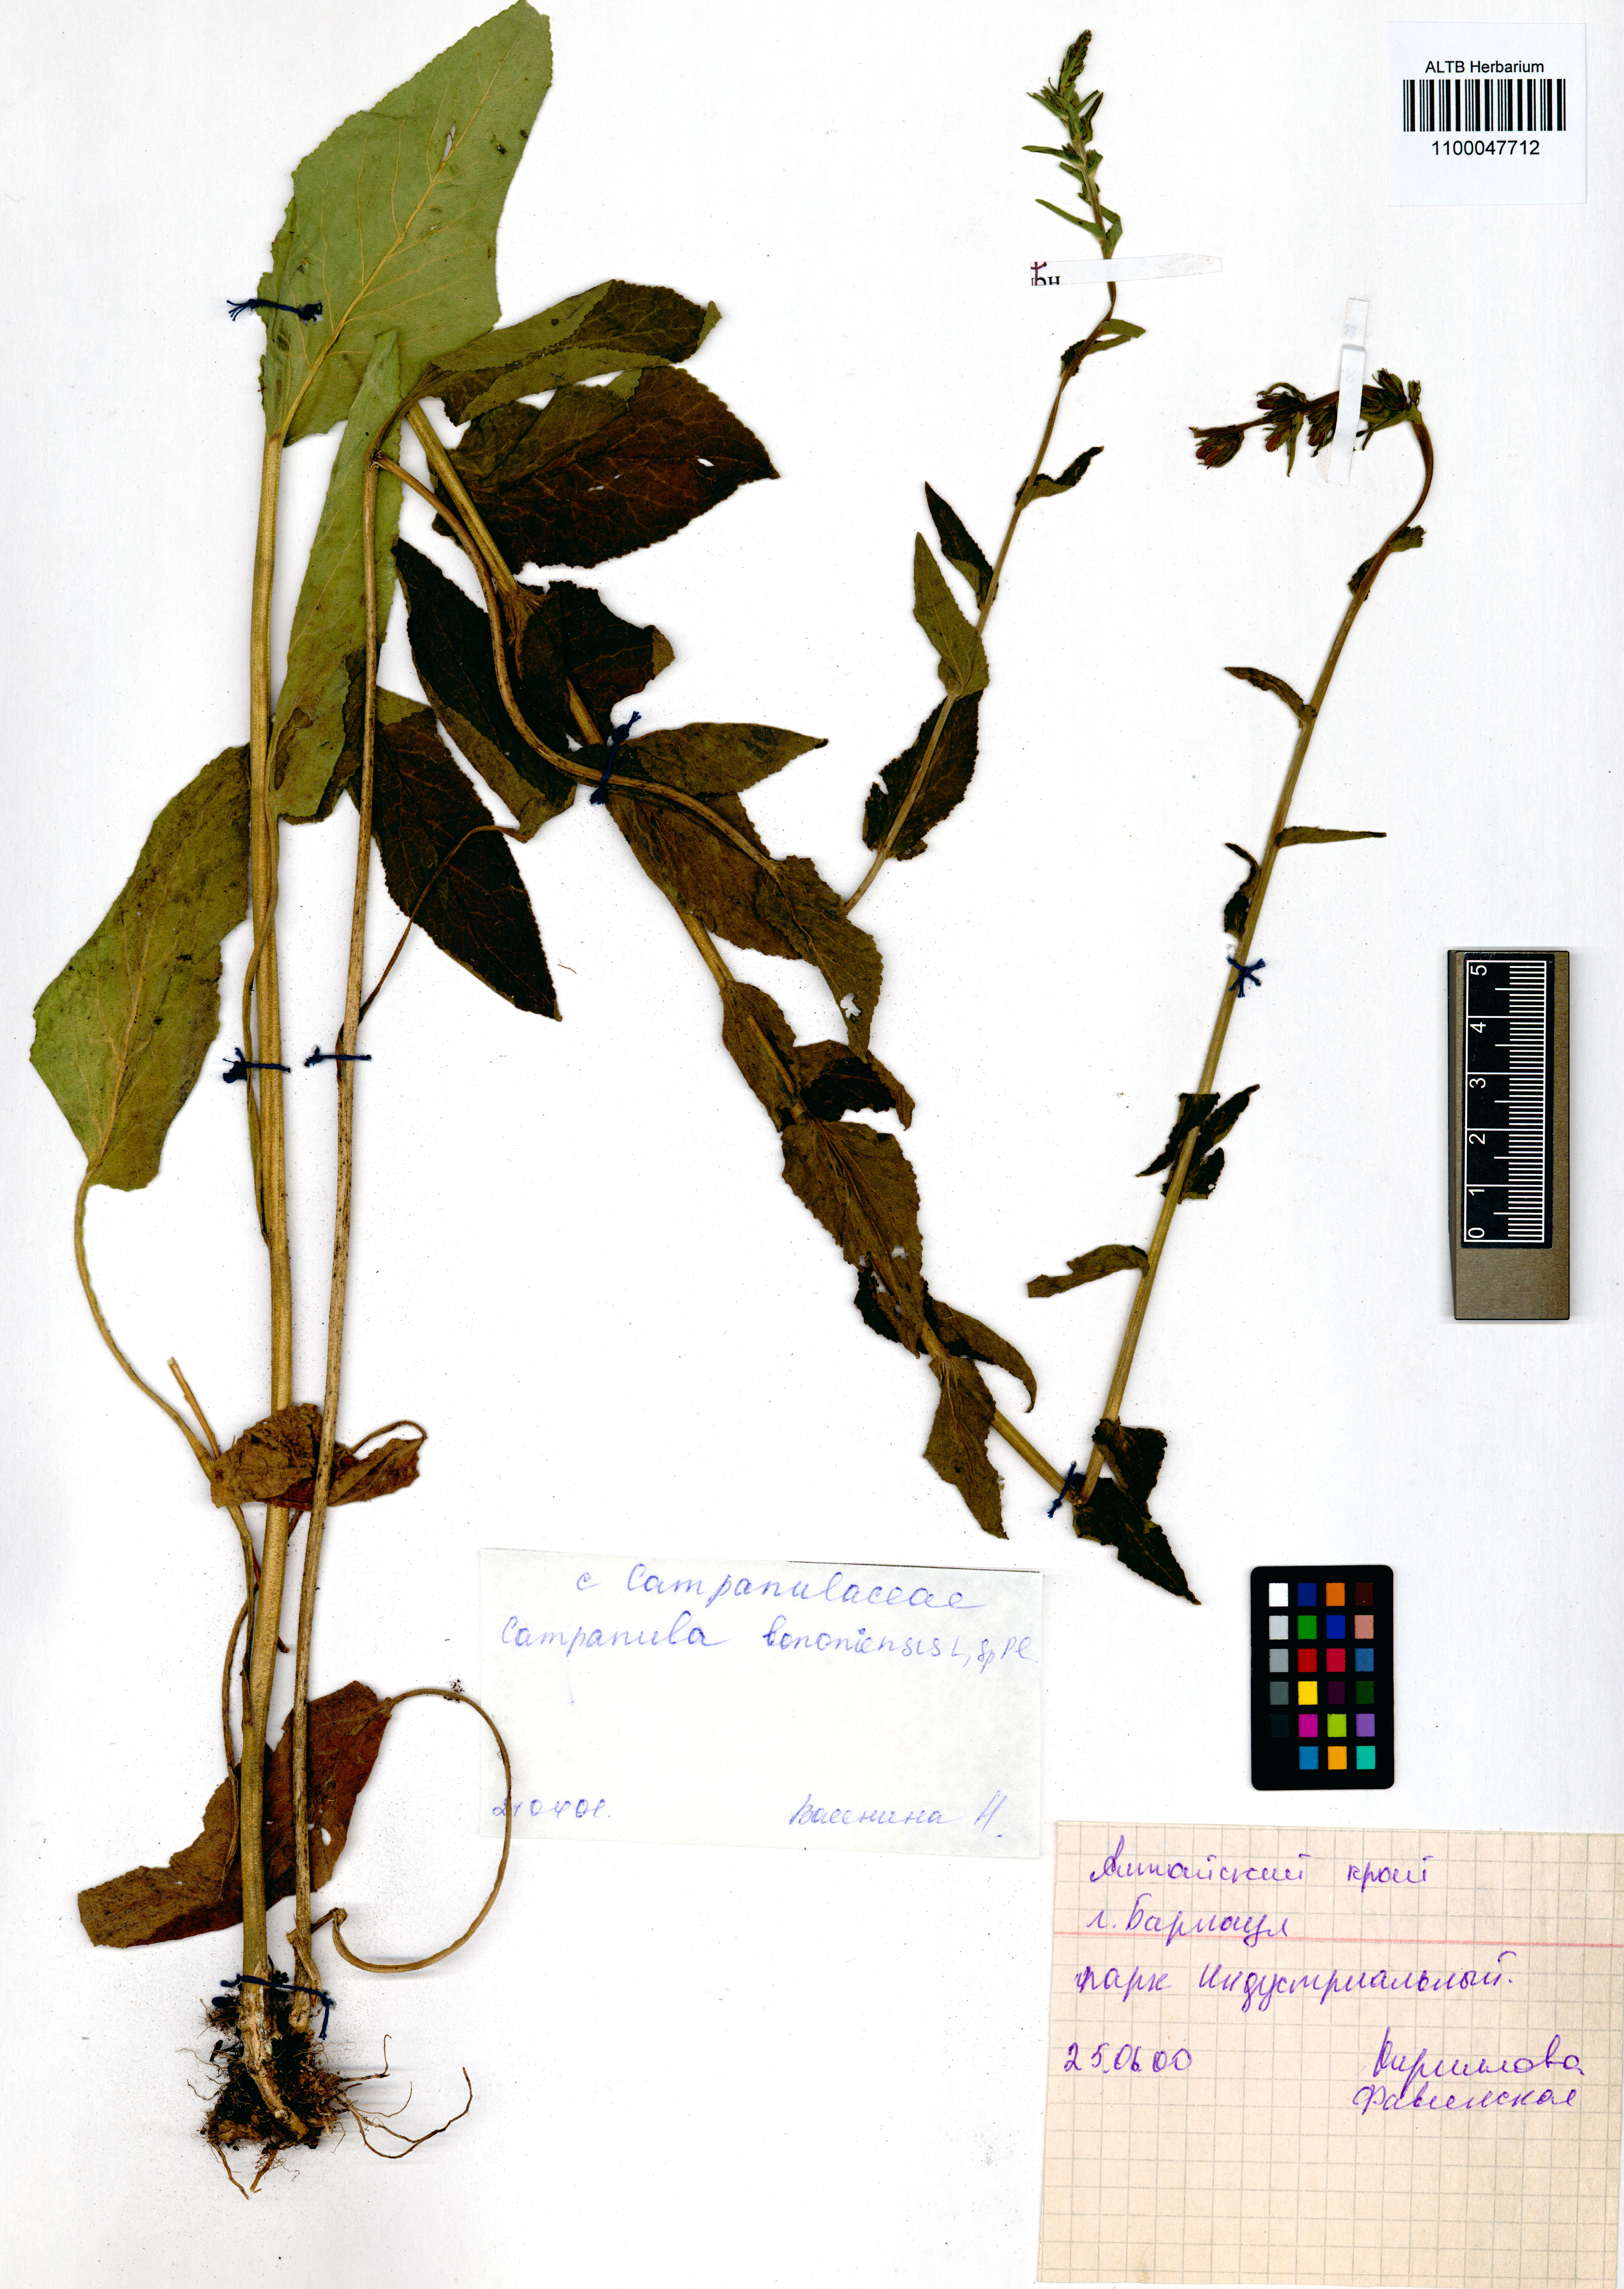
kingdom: Plantae
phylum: Tracheophyta
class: Magnoliopsida
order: Asterales
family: Campanulaceae
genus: Campanula
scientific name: Campanula bononiensis
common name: Pale bellflower
